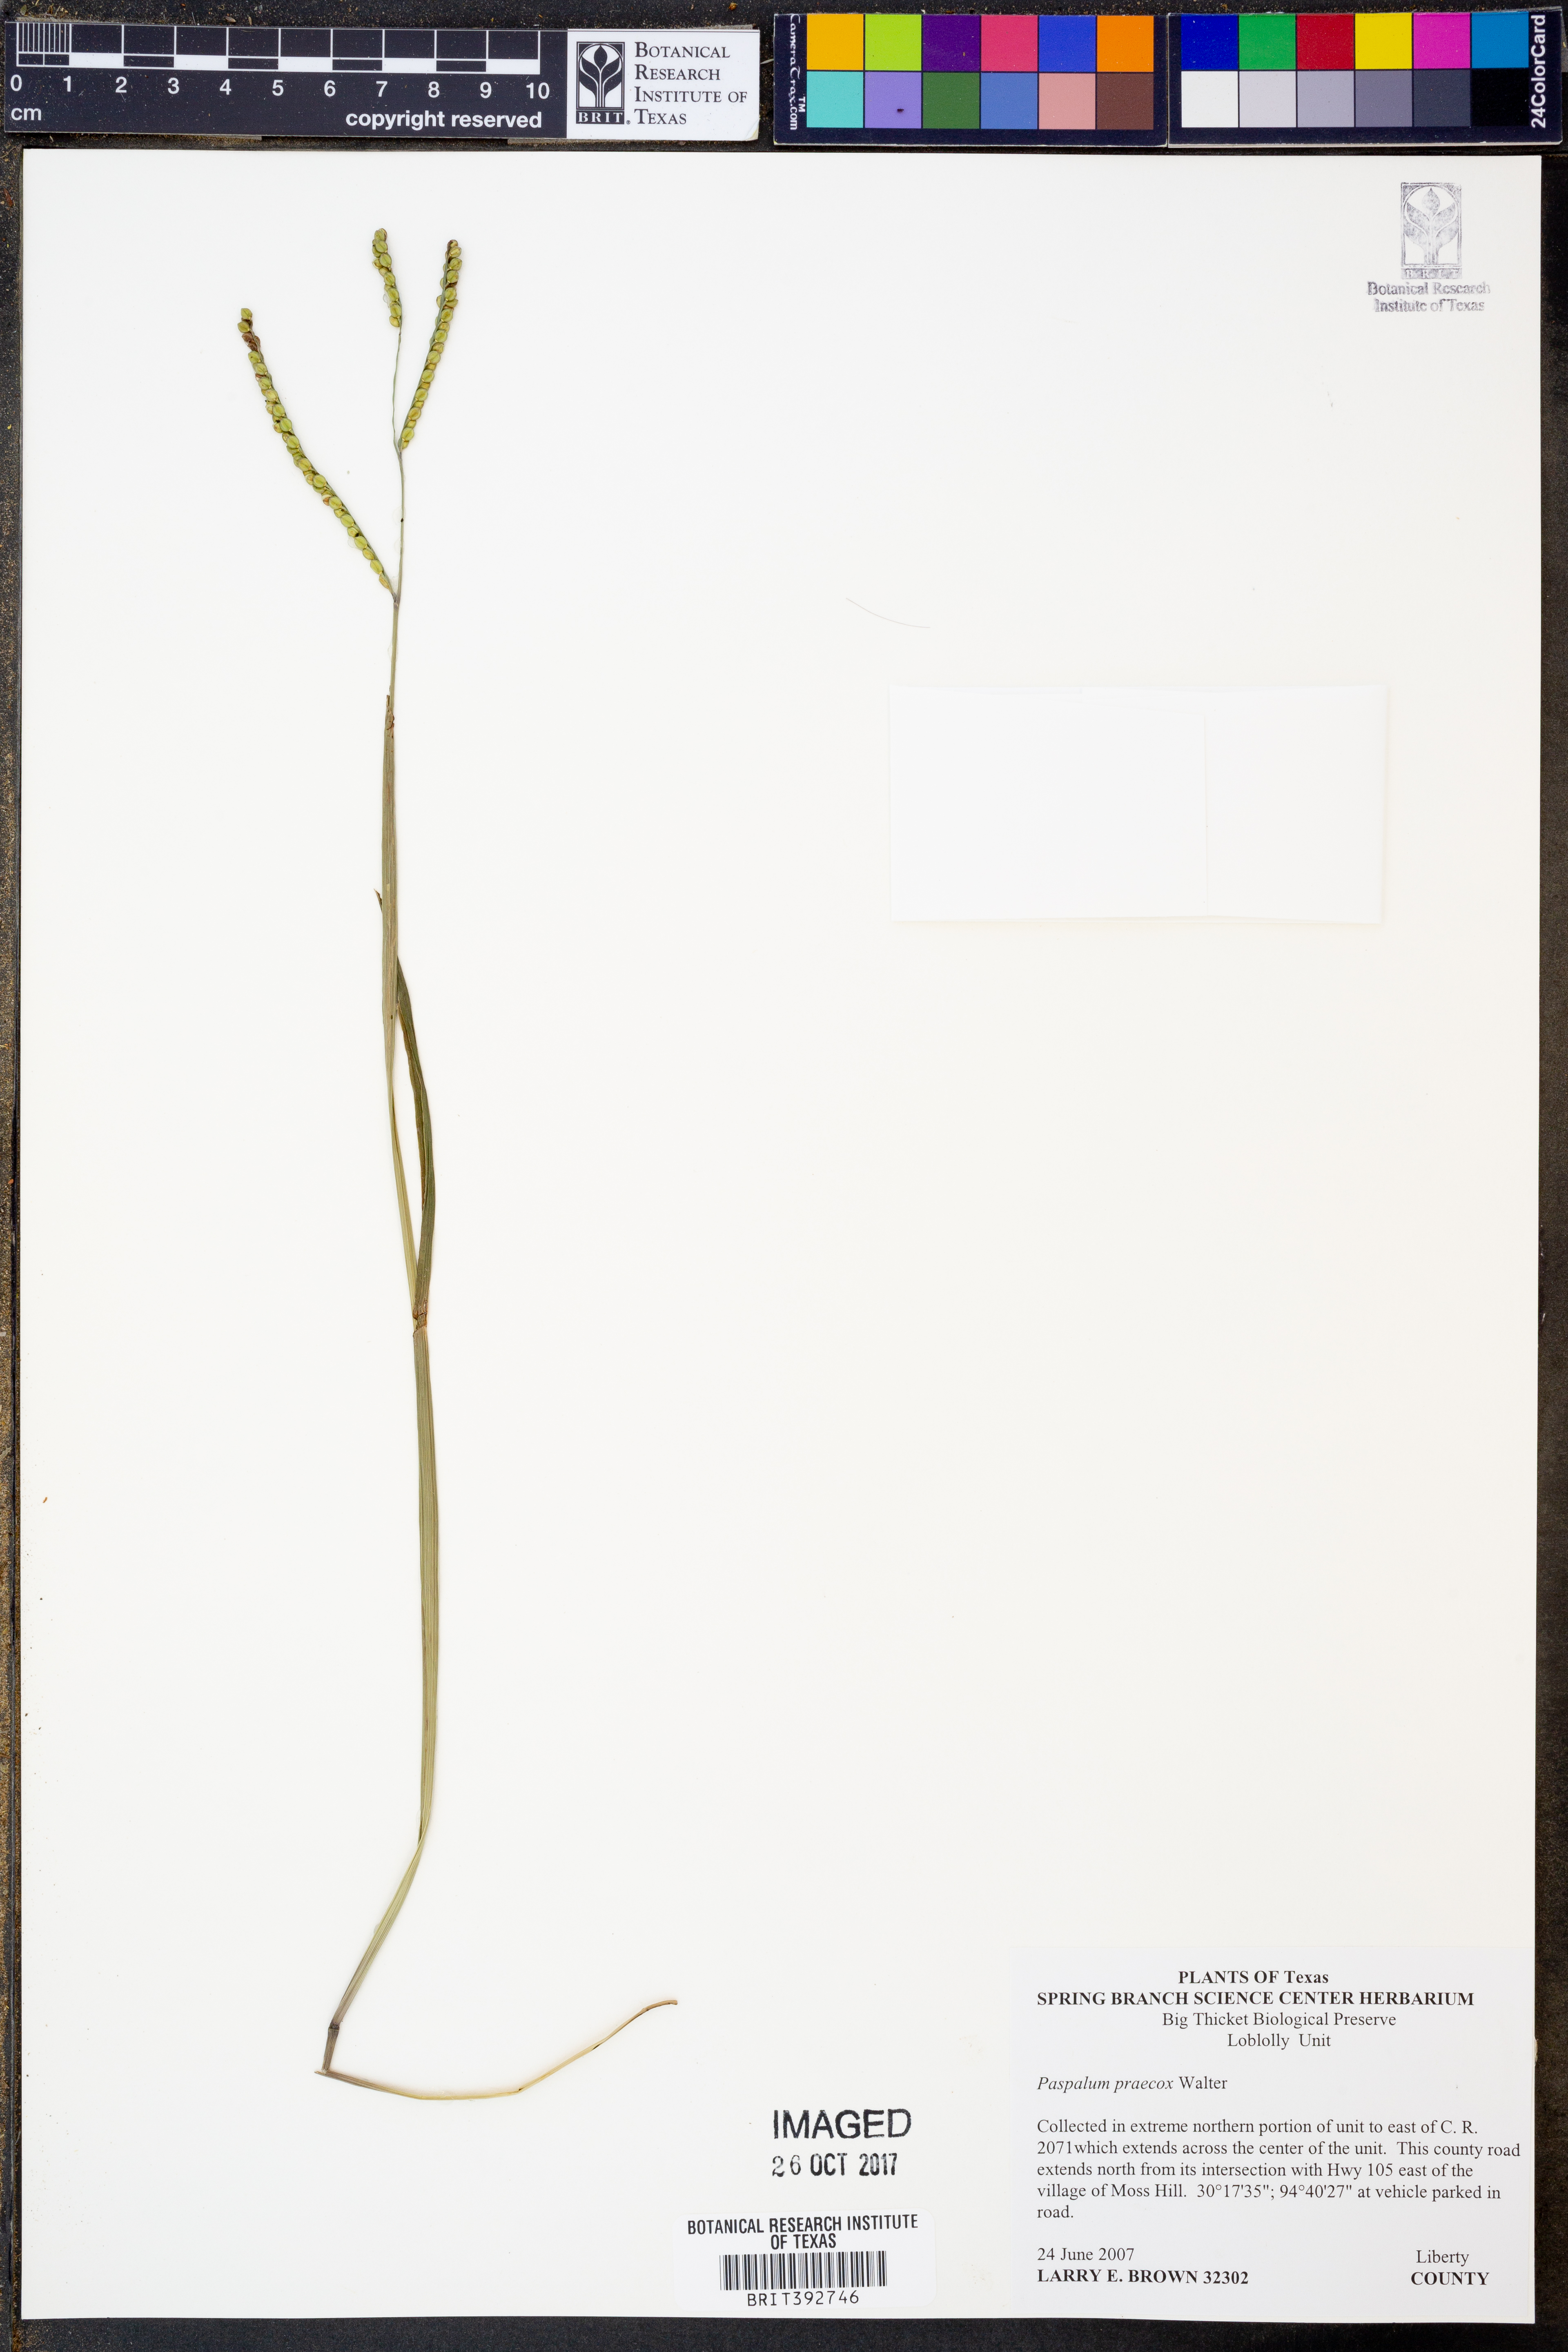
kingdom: Plantae
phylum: Tracheophyta
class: Liliopsida
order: Poales
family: Poaceae
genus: Paspalum
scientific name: Paspalum praecox
